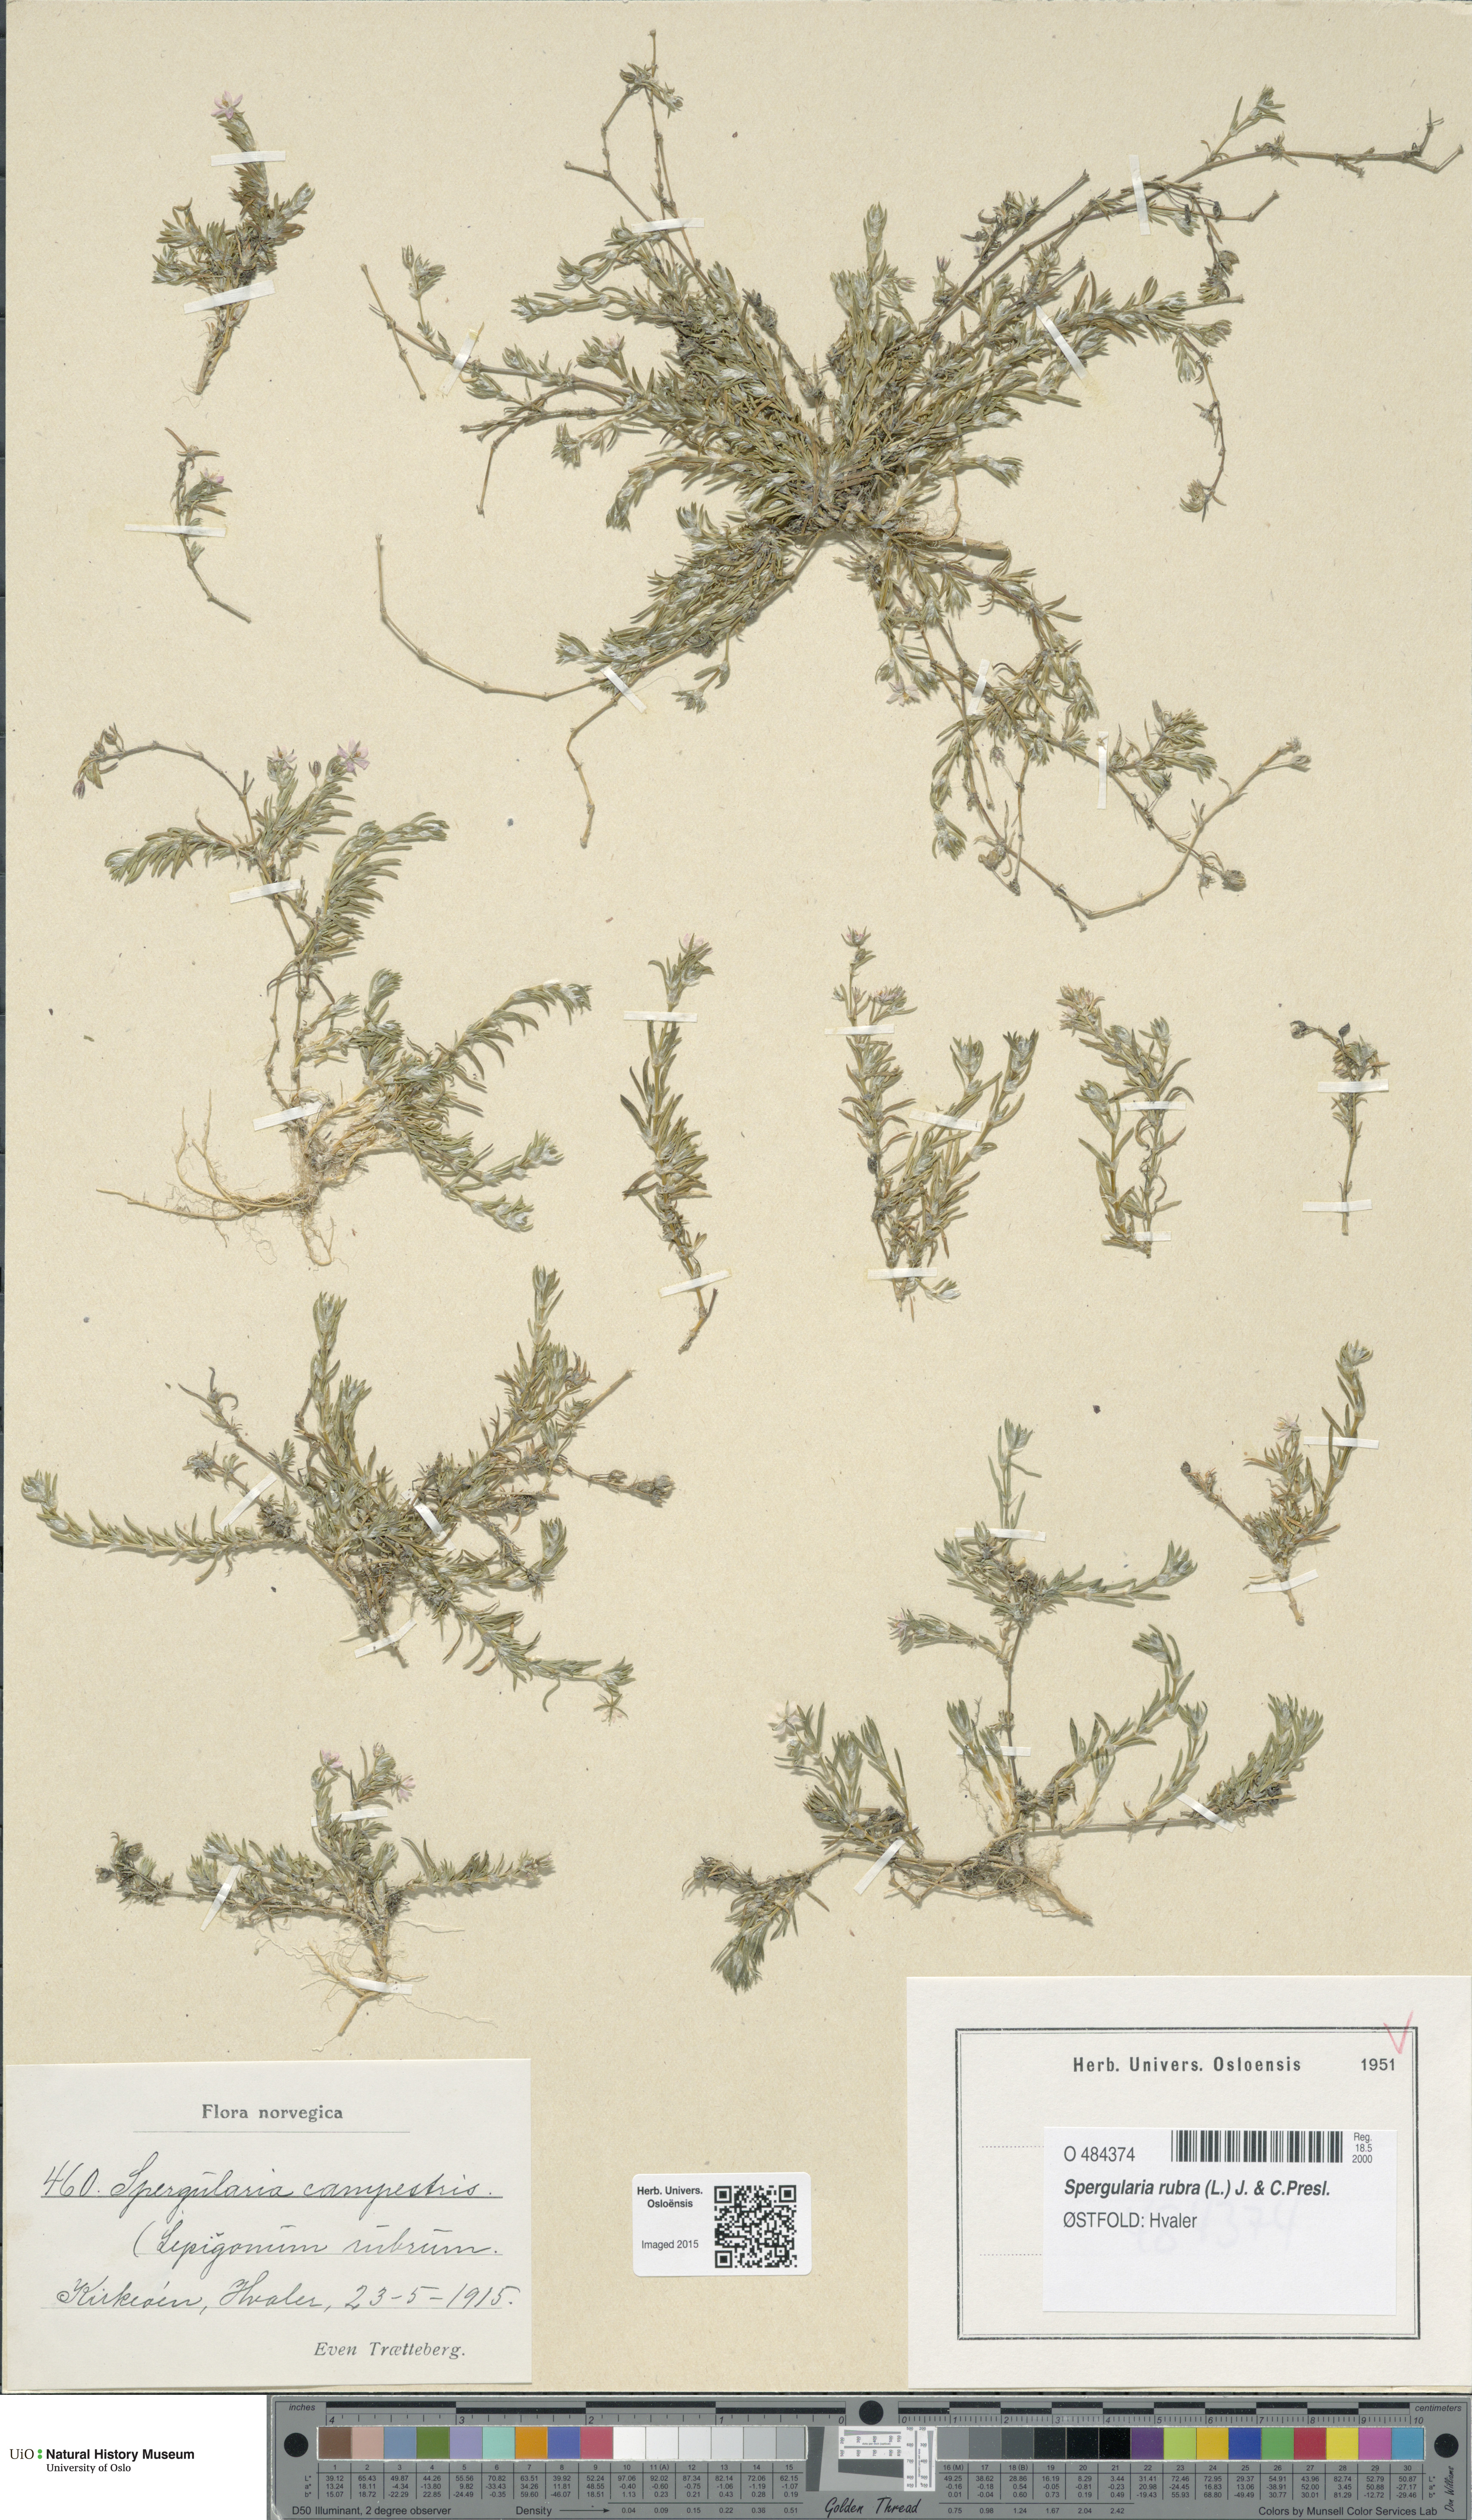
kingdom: Plantae
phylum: Tracheophyta
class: Magnoliopsida
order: Caryophyllales
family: Caryophyllaceae
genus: Spergularia
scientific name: Spergularia rubra
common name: Red sand-spurrey
